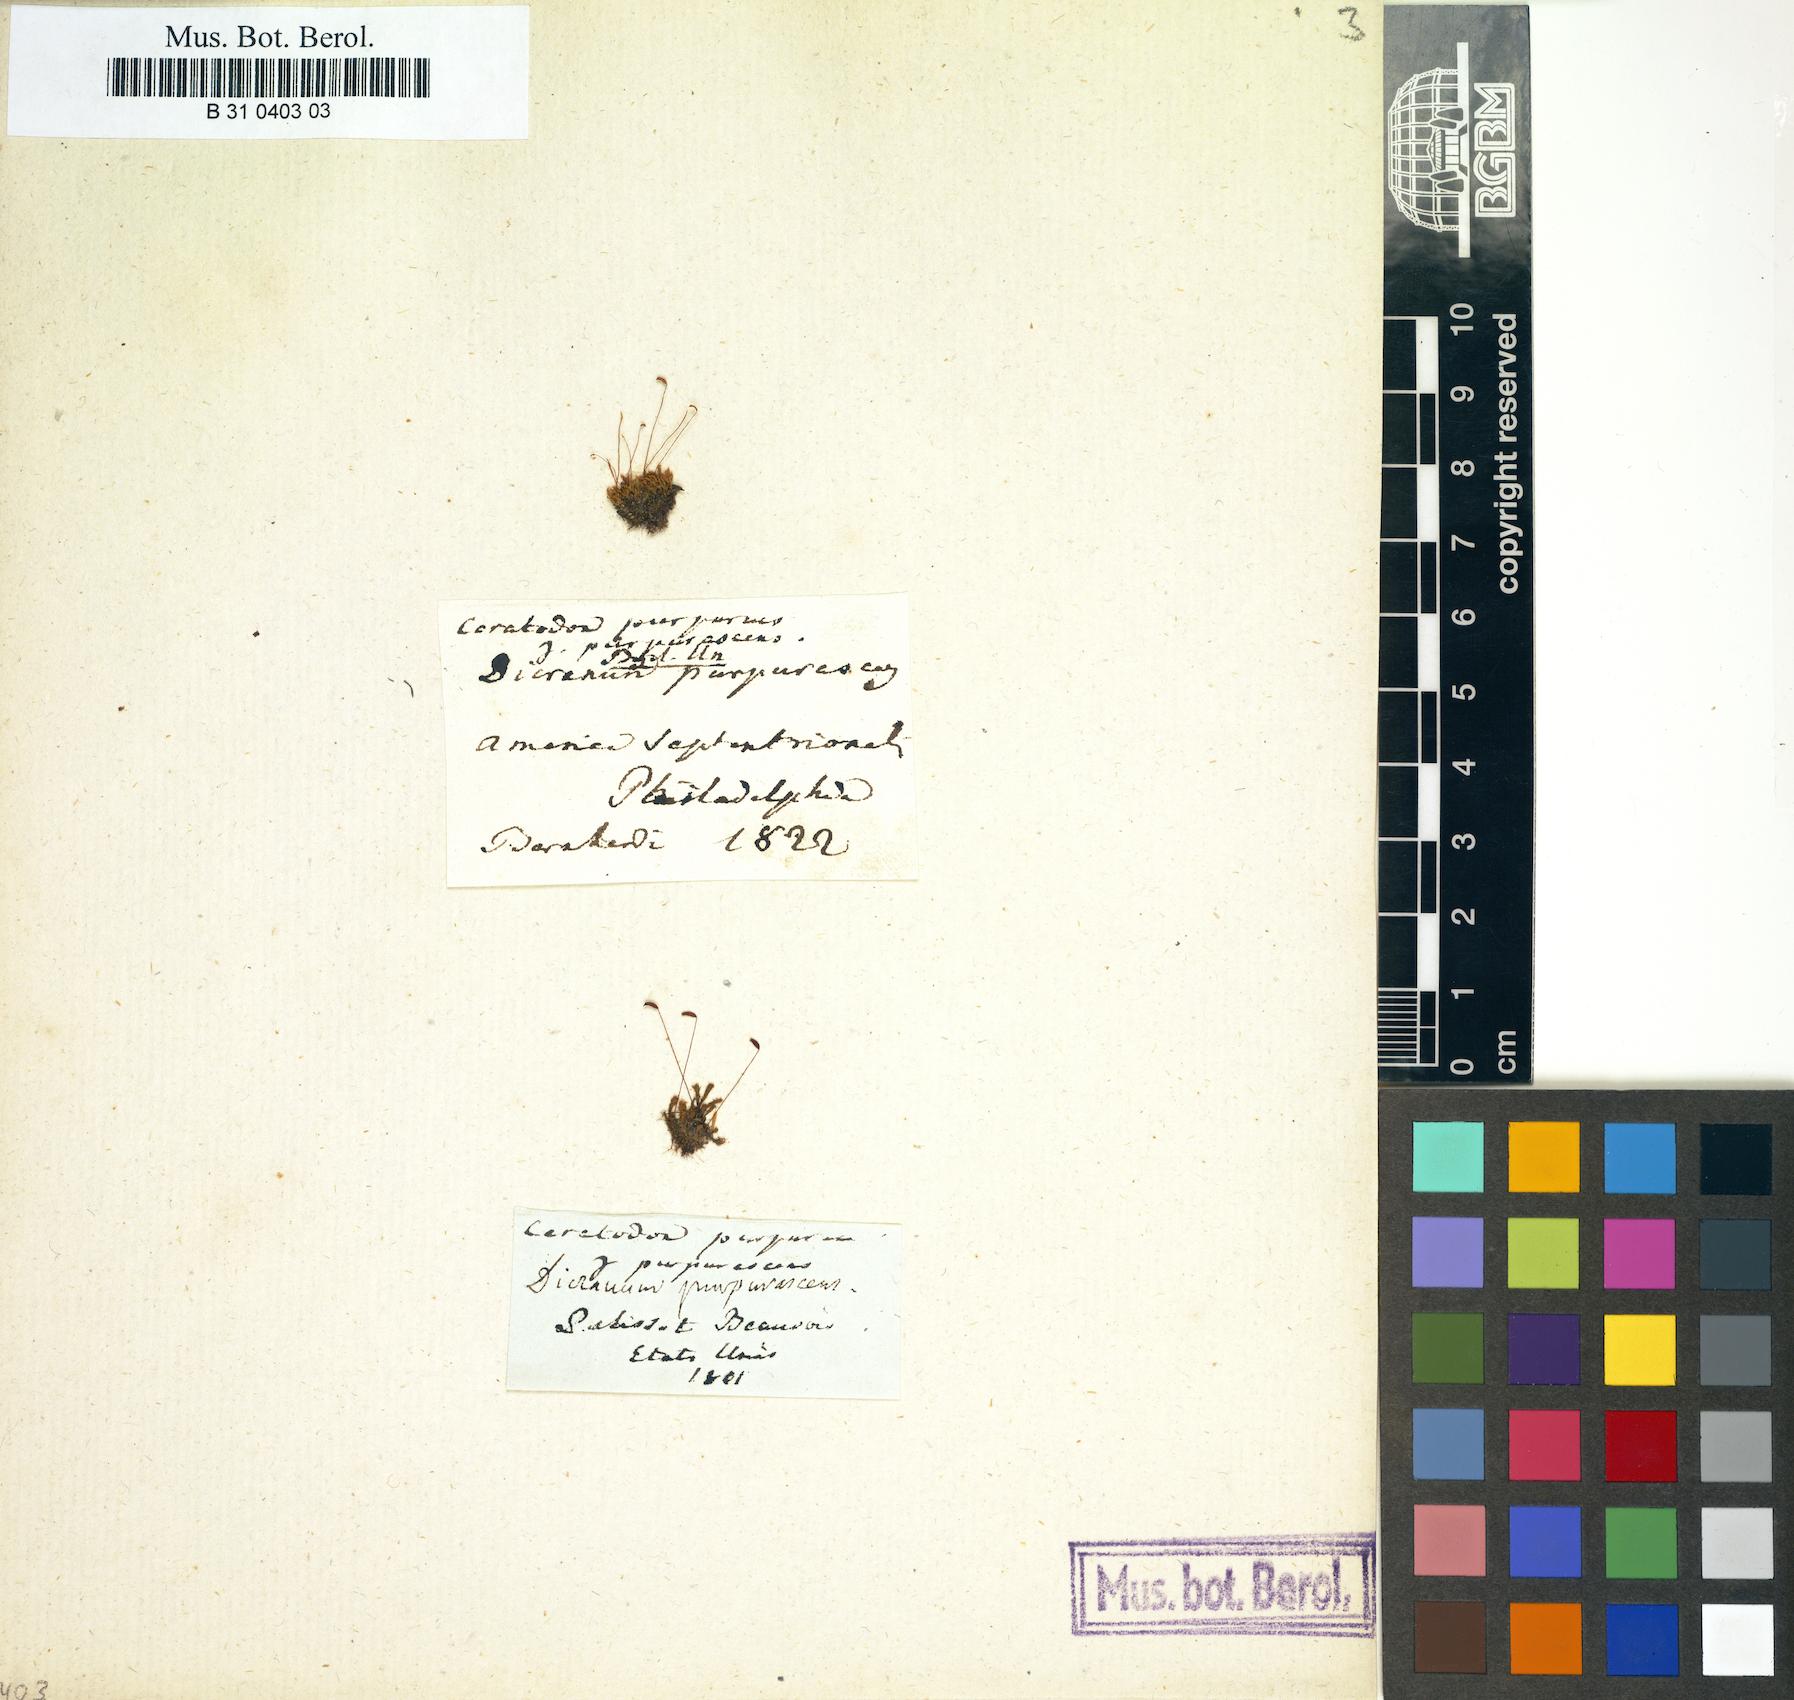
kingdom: Plantae
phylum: Bryophyta
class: Bryopsida
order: Dicranales
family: Ditrichaceae
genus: Ceratodon
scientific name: Ceratodon purpureus
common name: Redshank
